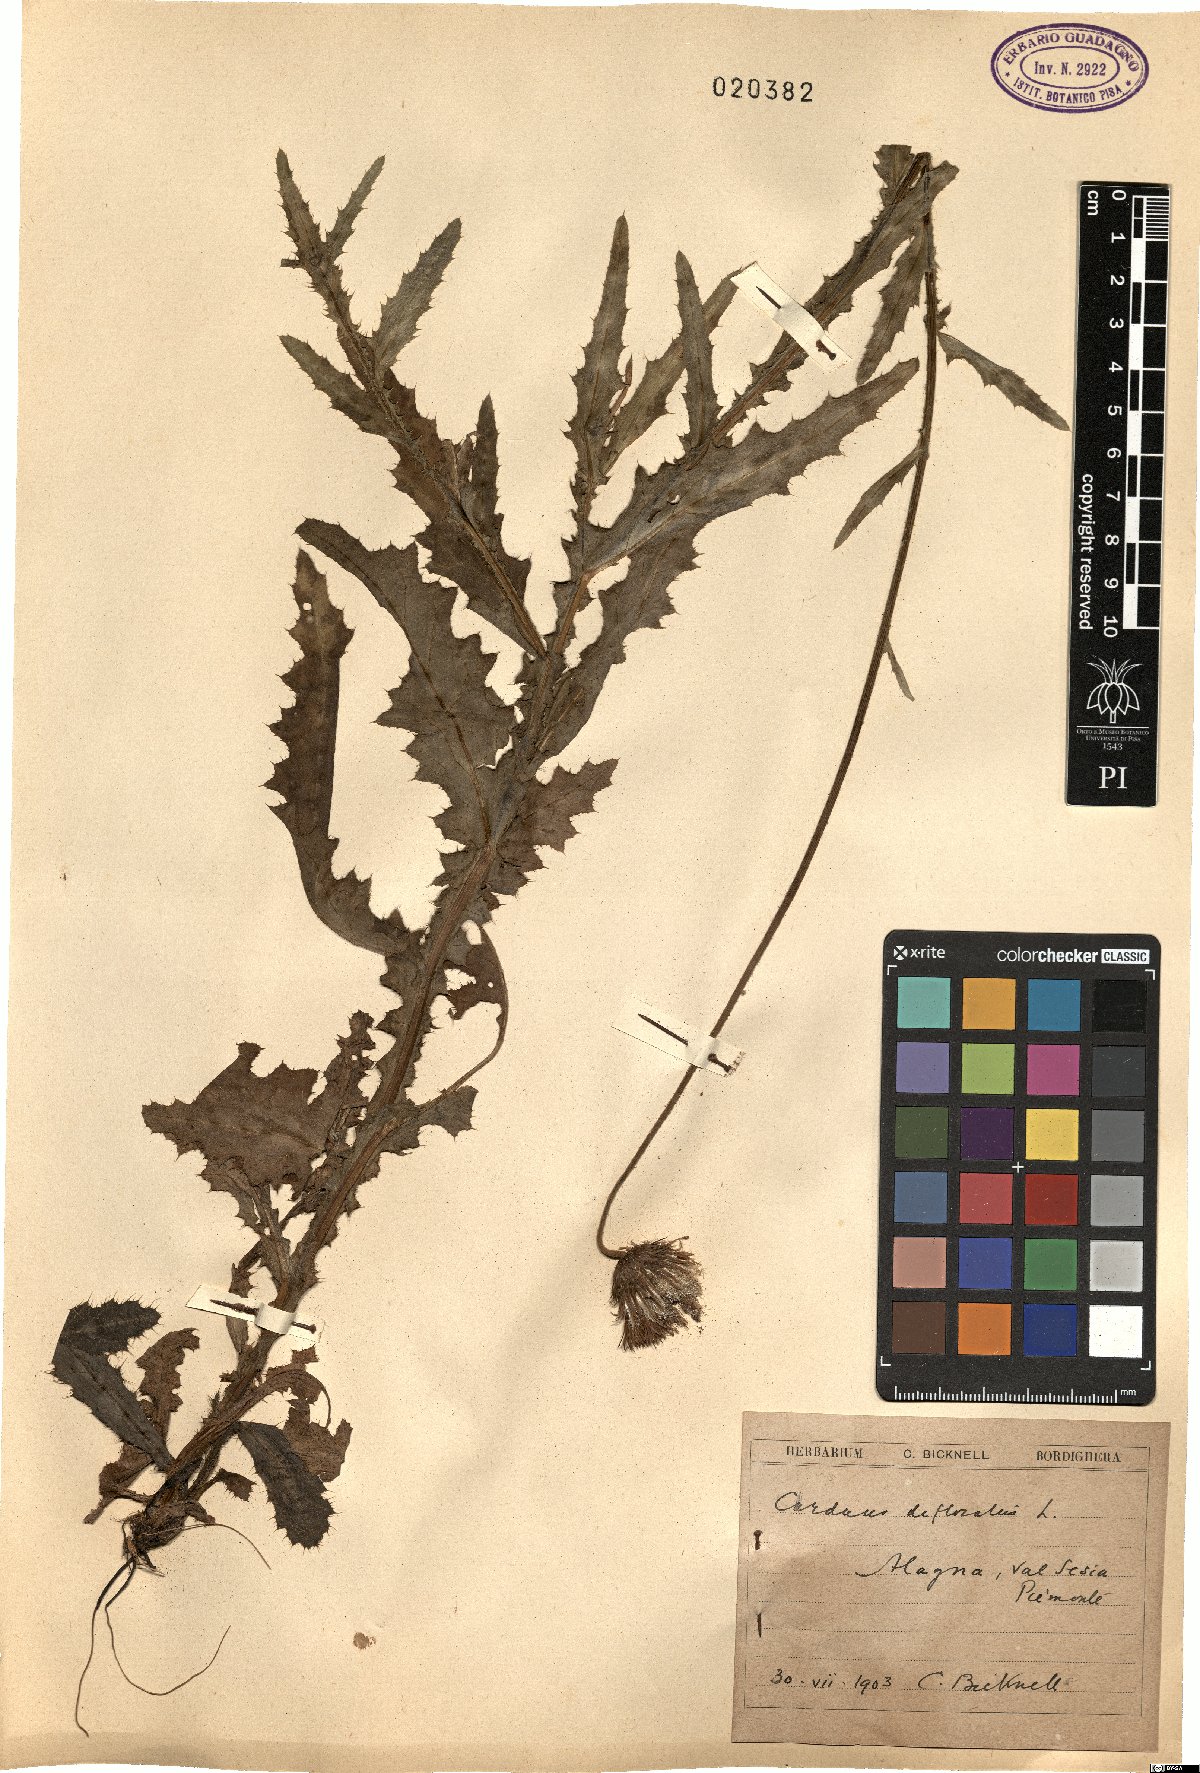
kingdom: Plantae
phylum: Tracheophyta
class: Magnoliopsida
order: Asterales
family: Asteraceae
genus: Carduus
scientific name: Carduus defloratus
